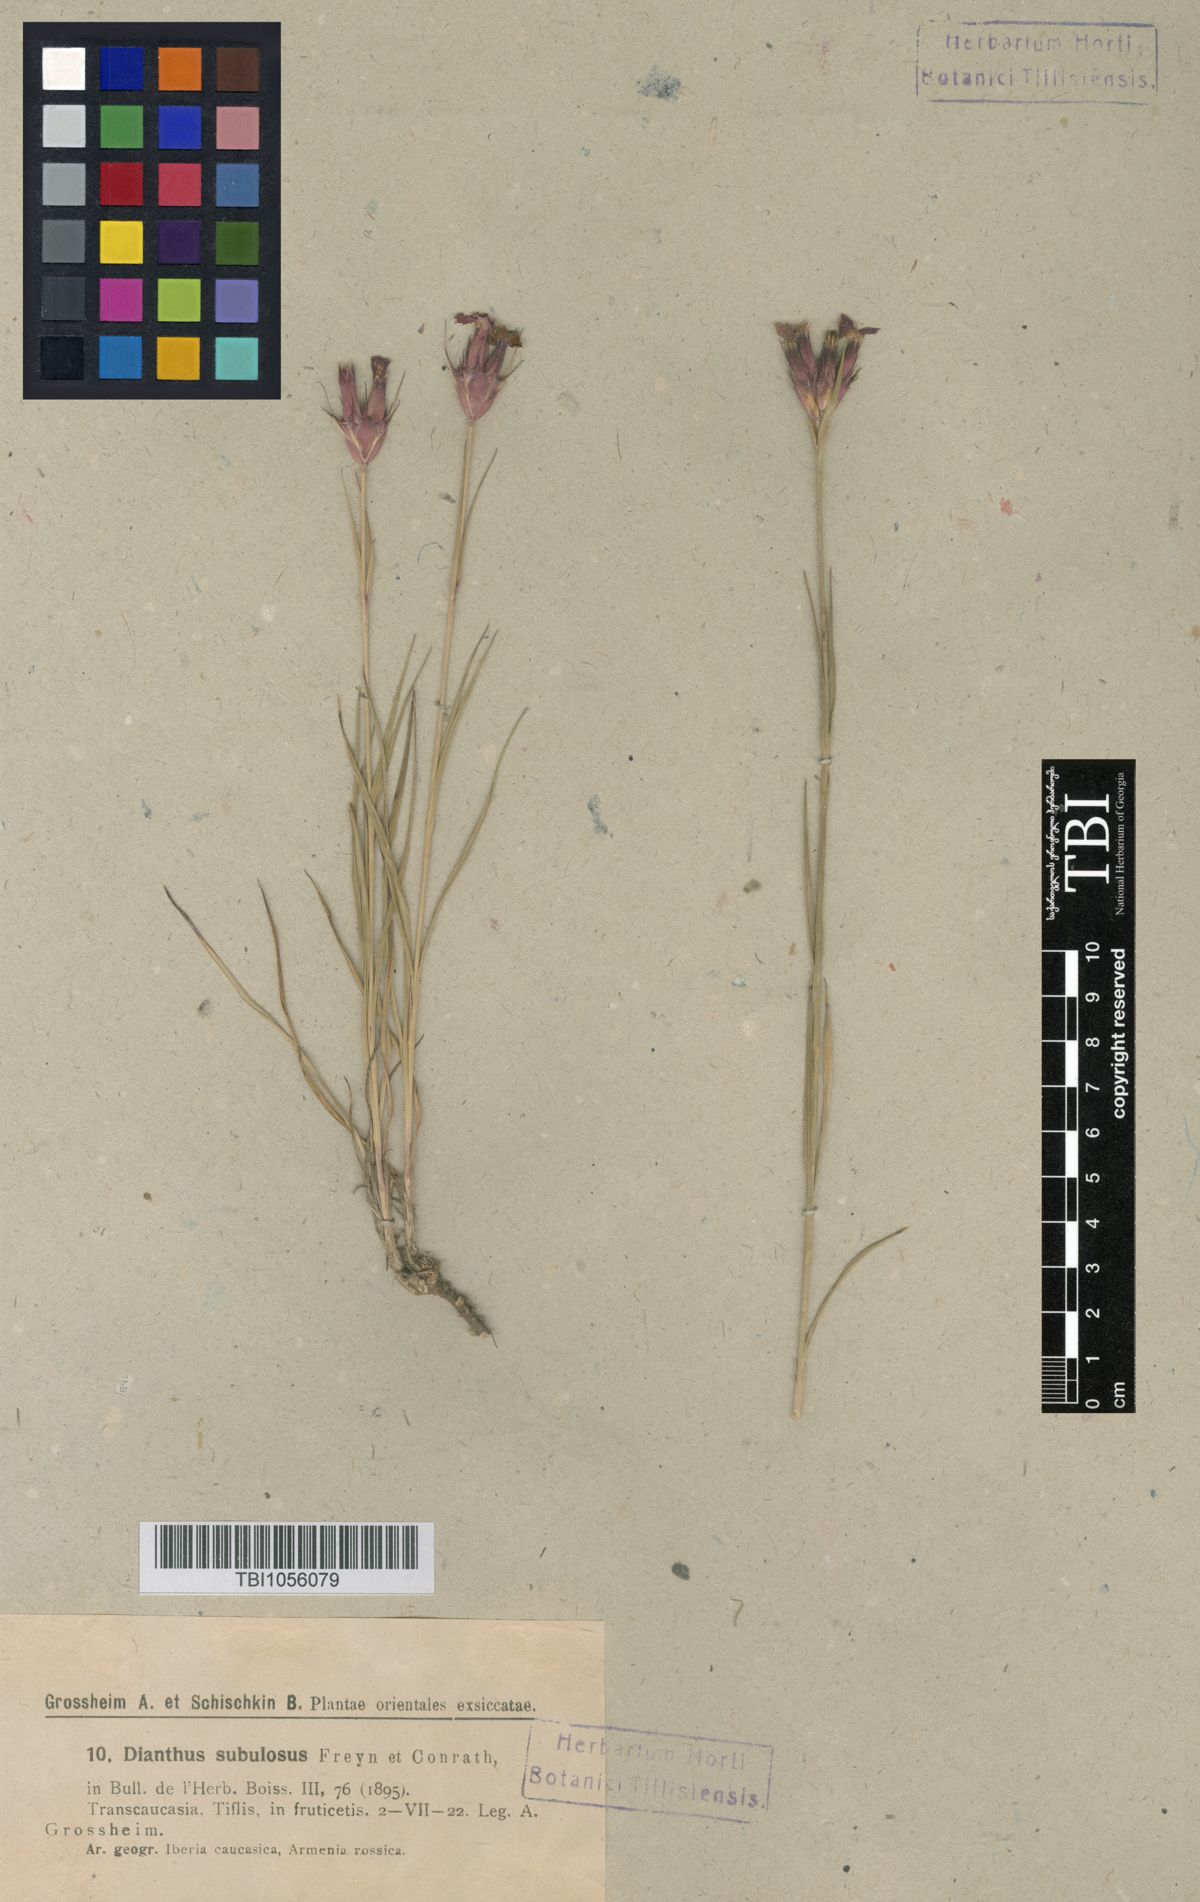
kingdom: Plantae
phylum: Tracheophyta
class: Magnoliopsida
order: Caryophyllales
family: Caryophyllaceae
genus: Dianthus
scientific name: Dianthus subulosus
